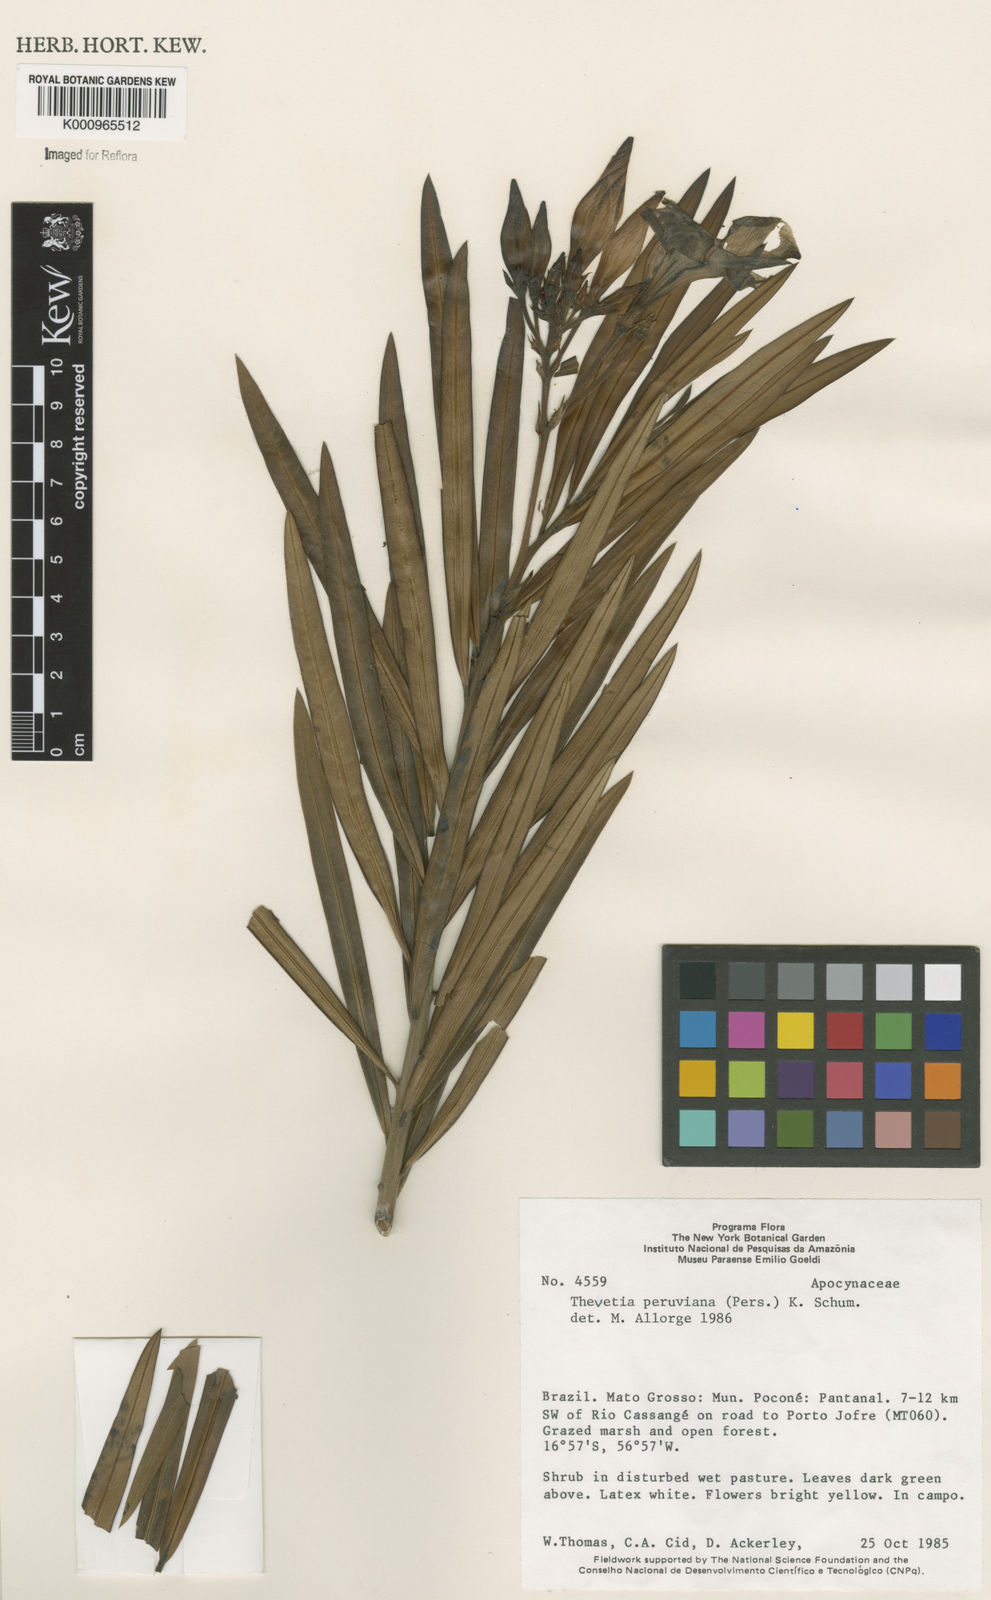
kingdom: Plantae
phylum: Tracheophyta
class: Magnoliopsida
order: Gentianales
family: Apocynaceae
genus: Cascabela
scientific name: Cascabela thevetia
